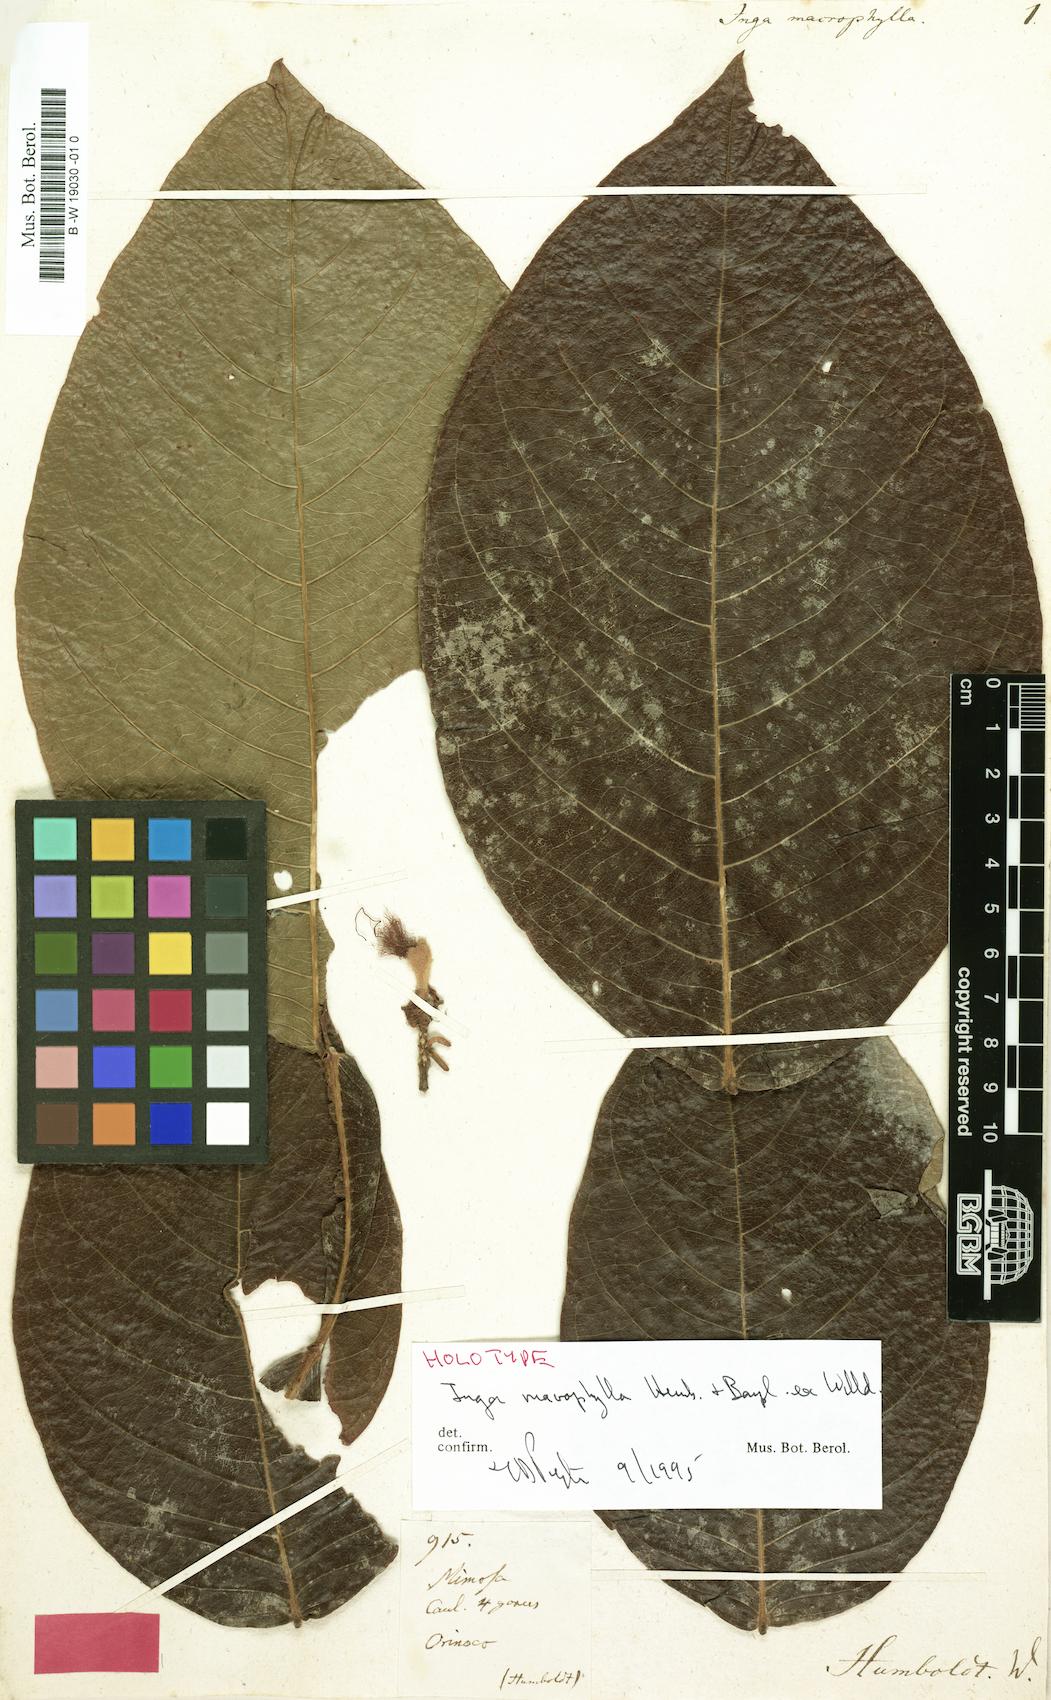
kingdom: Plantae
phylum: Tracheophyta
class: Magnoliopsida
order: Fabales
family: Fabaceae
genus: Inga
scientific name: Inga macrophylla
